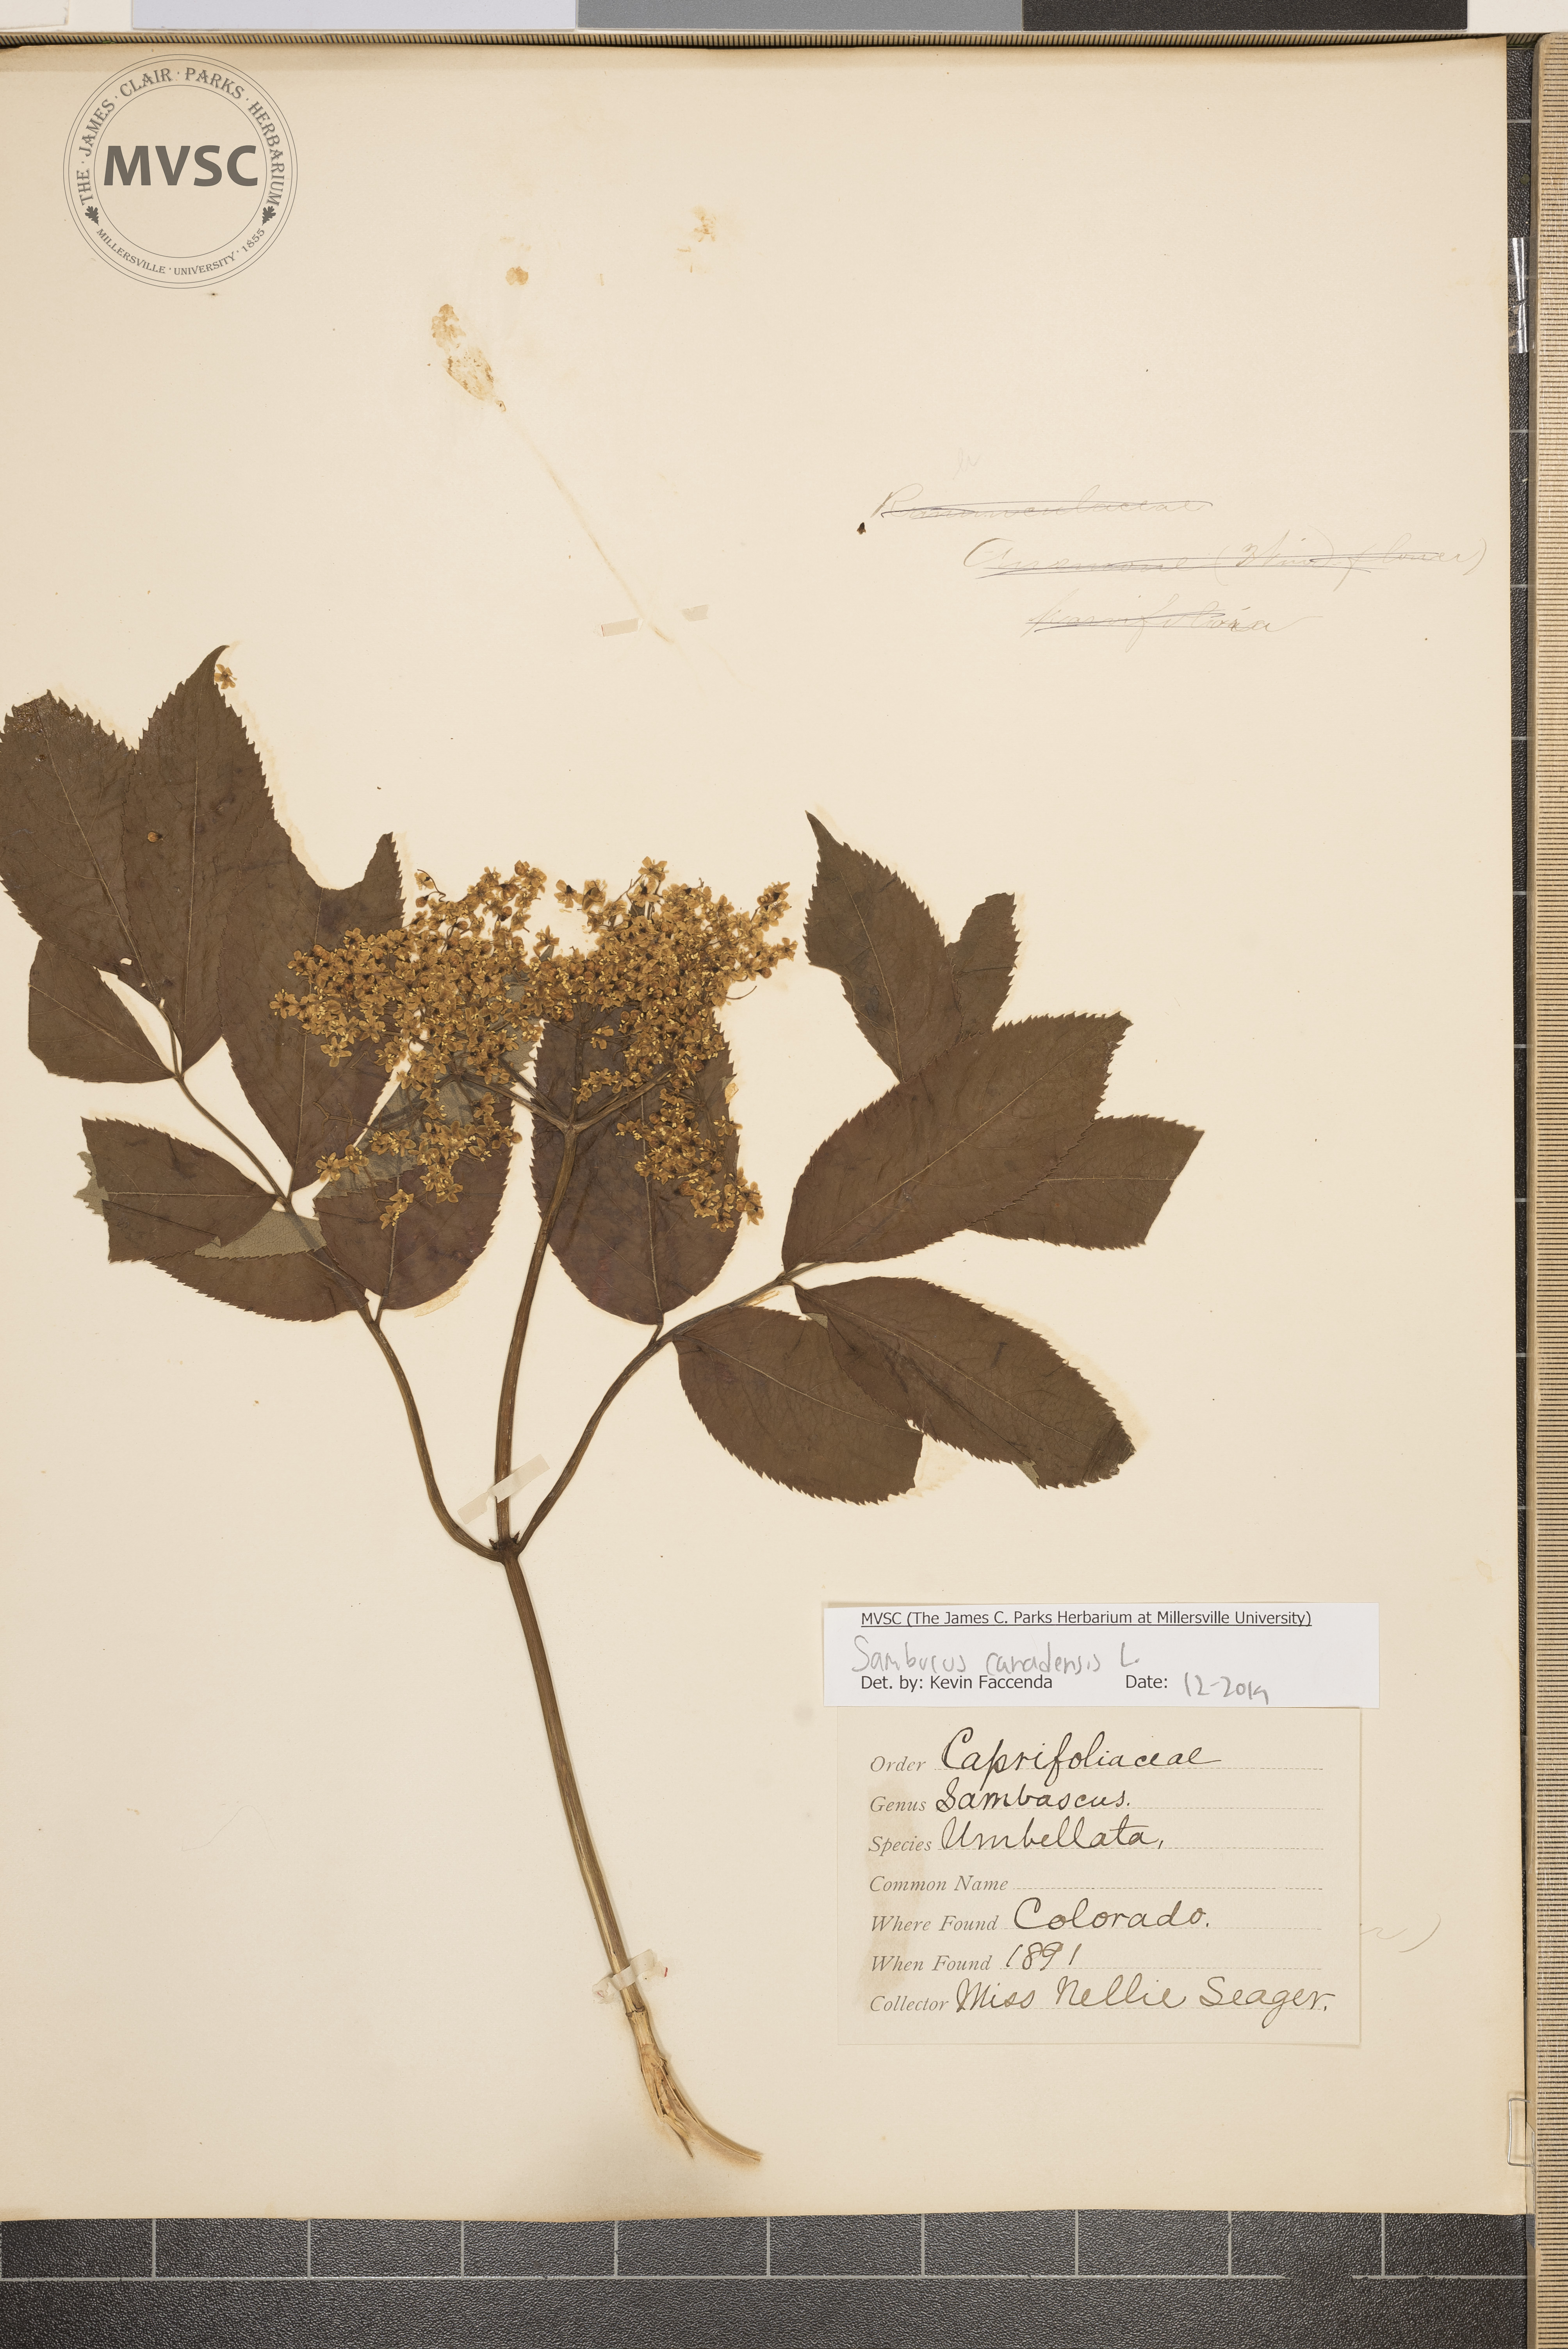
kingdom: Plantae
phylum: Tracheophyta
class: Magnoliopsida
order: Dipsacales
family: Viburnaceae
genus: Sambucus
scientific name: Sambucus canadensis
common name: American elder
